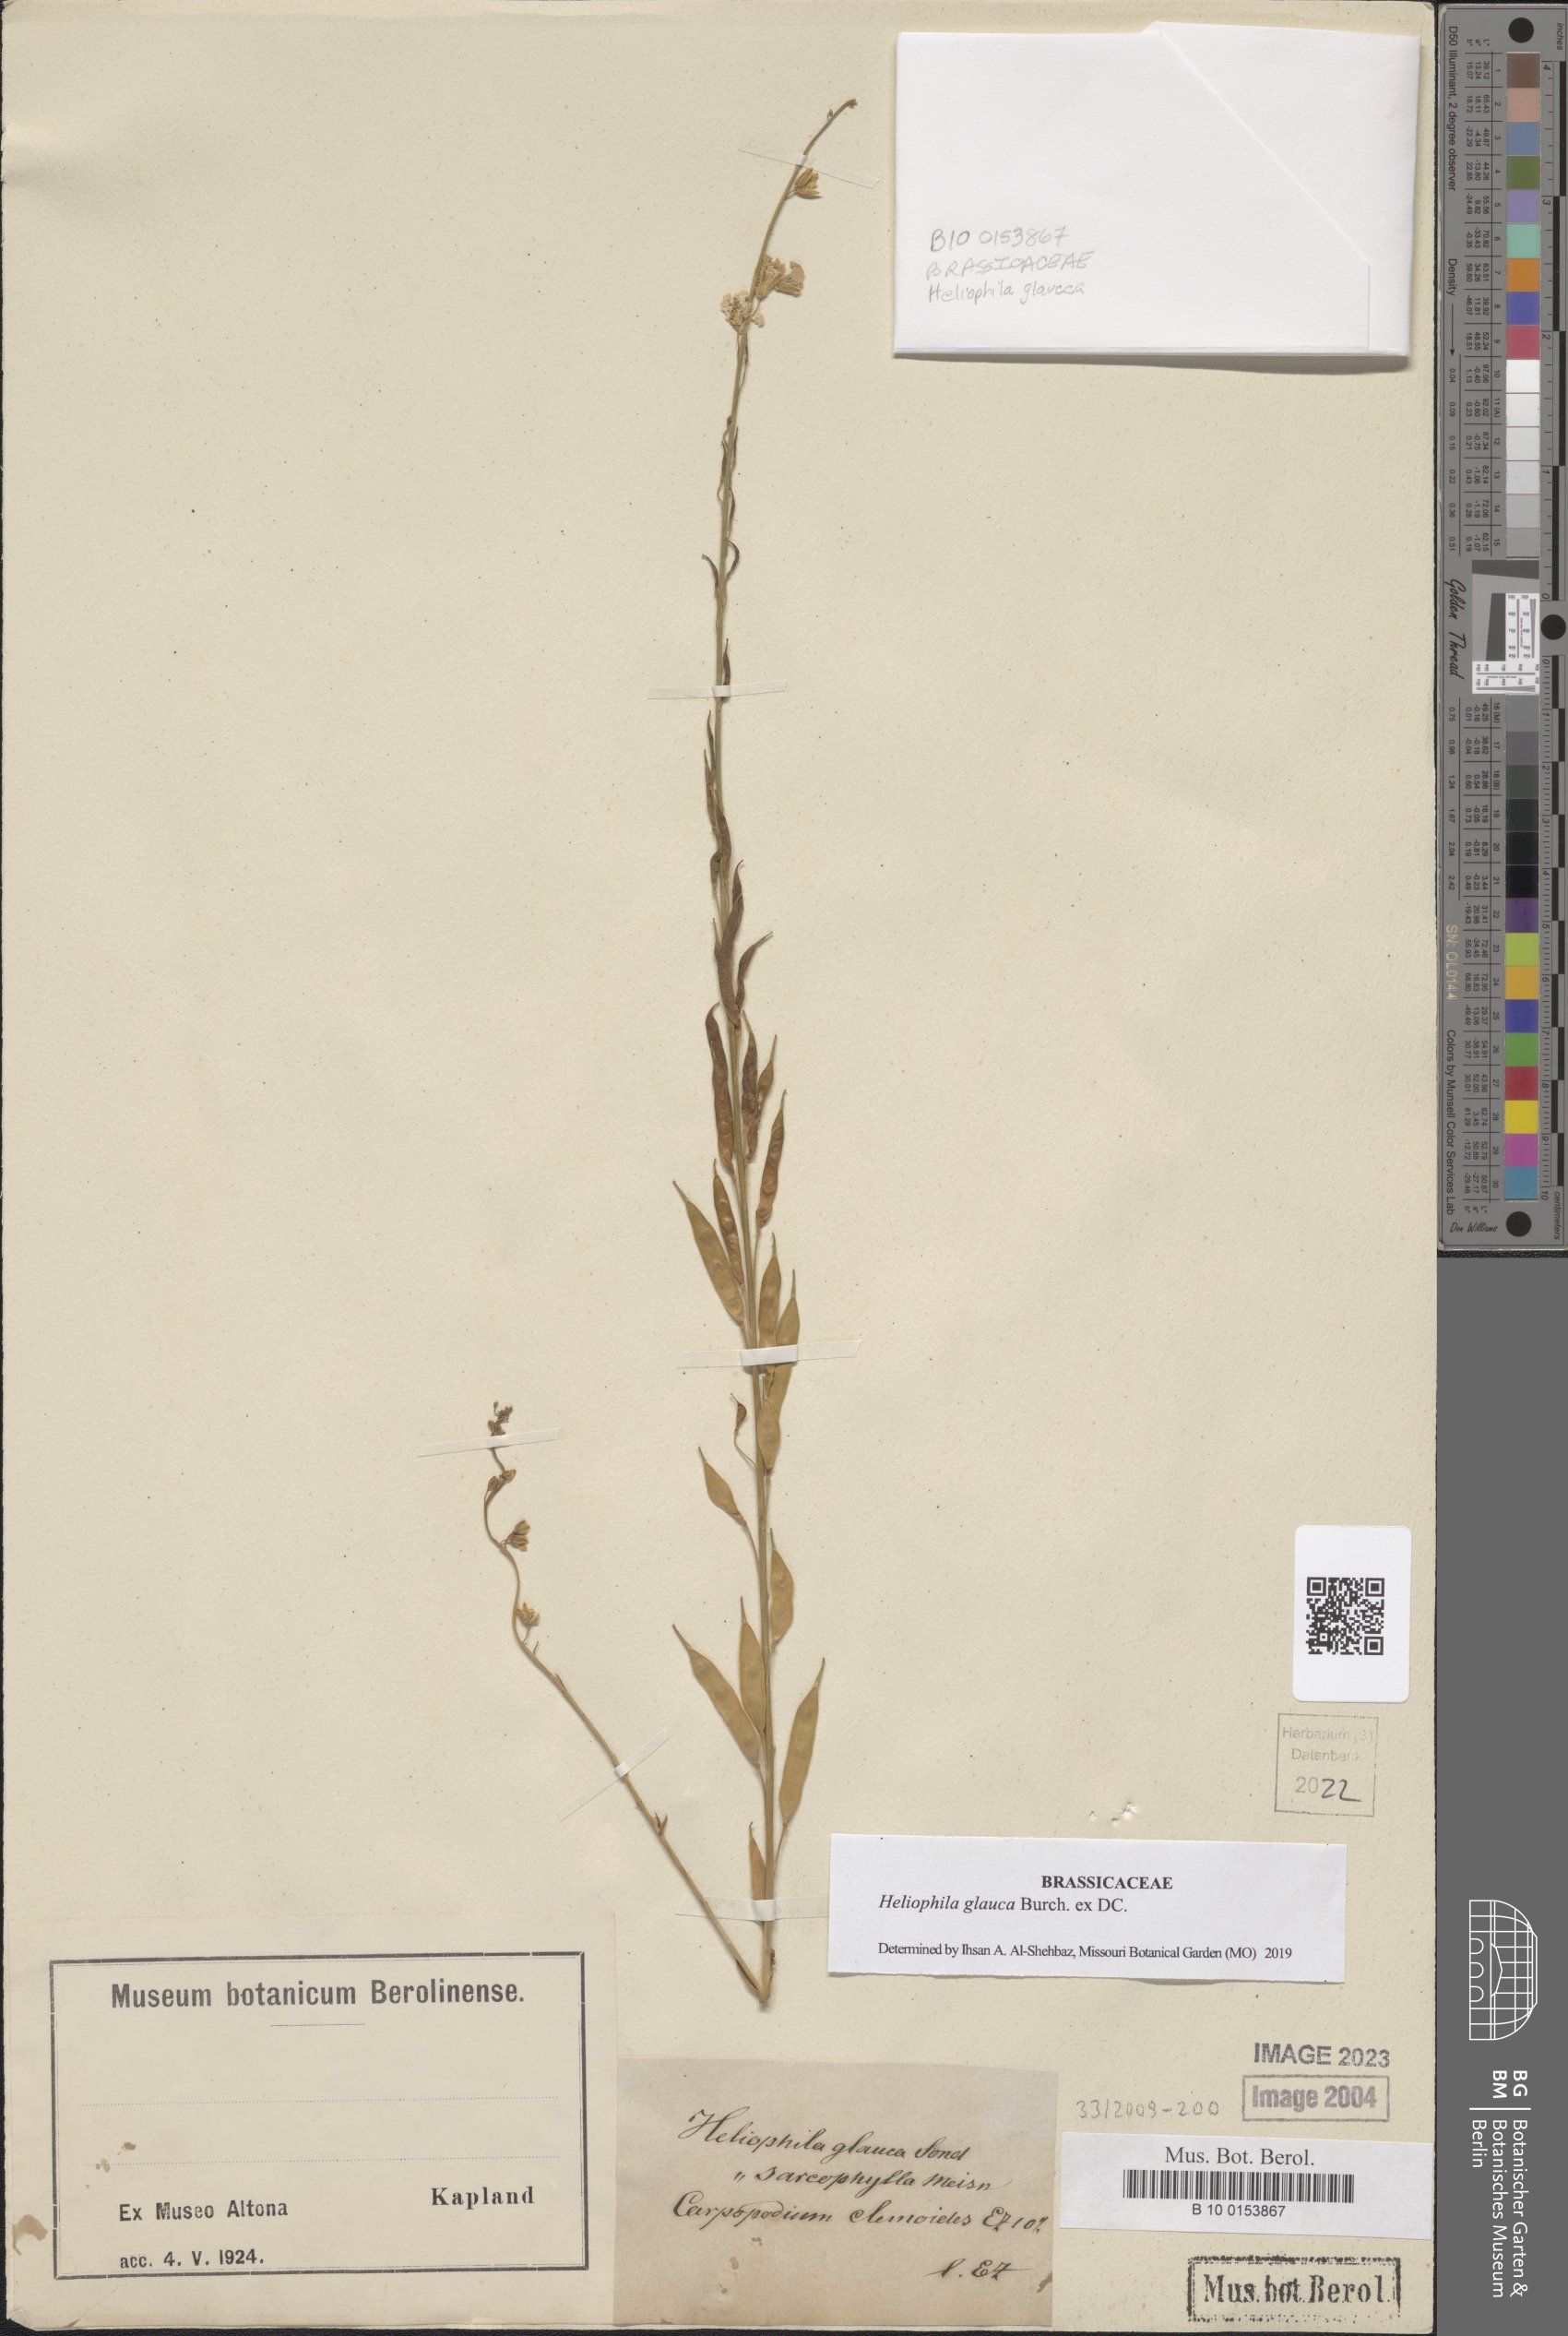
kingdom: Plantae
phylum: Tracheophyta
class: Magnoliopsida
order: Brassicales
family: Brassicaceae
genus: Heliophila
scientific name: Heliophila glauca
